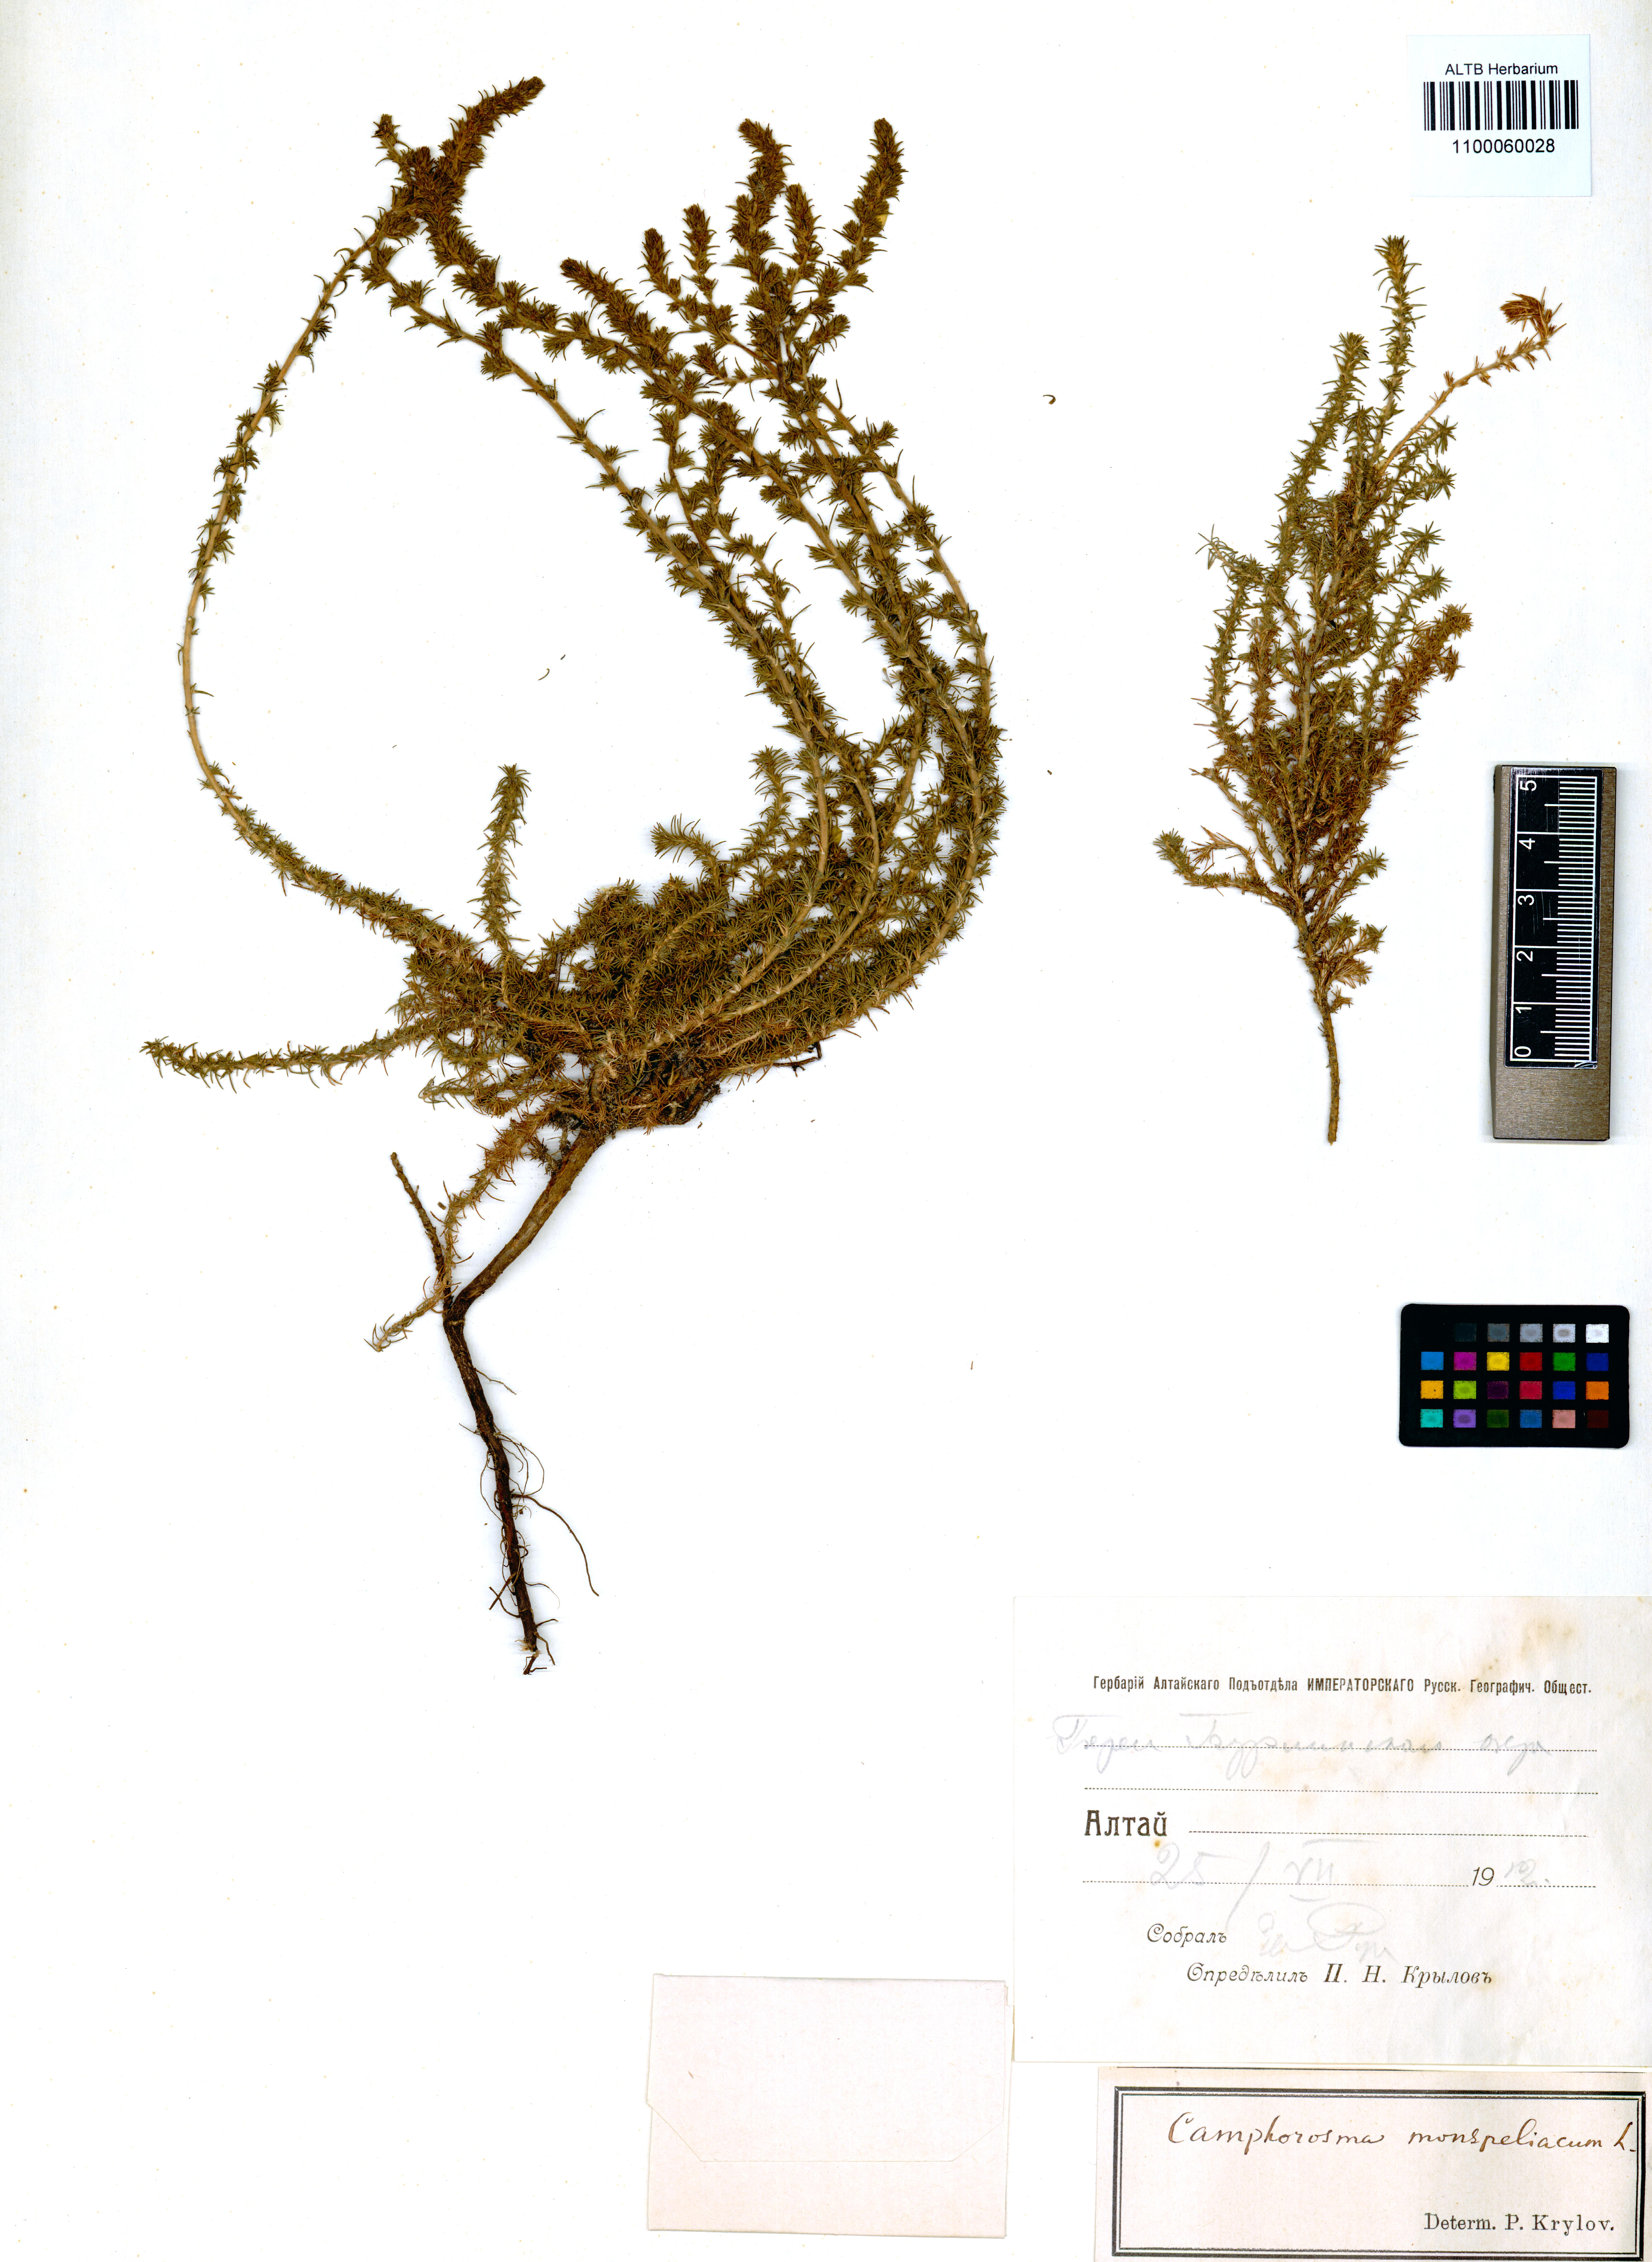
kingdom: Plantae
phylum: Tracheophyta
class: Magnoliopsida
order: Caryophyllales
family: Amaranthaceae
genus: Camphorosma
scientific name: Camphorosma monspeliaca
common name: Camphorfume
